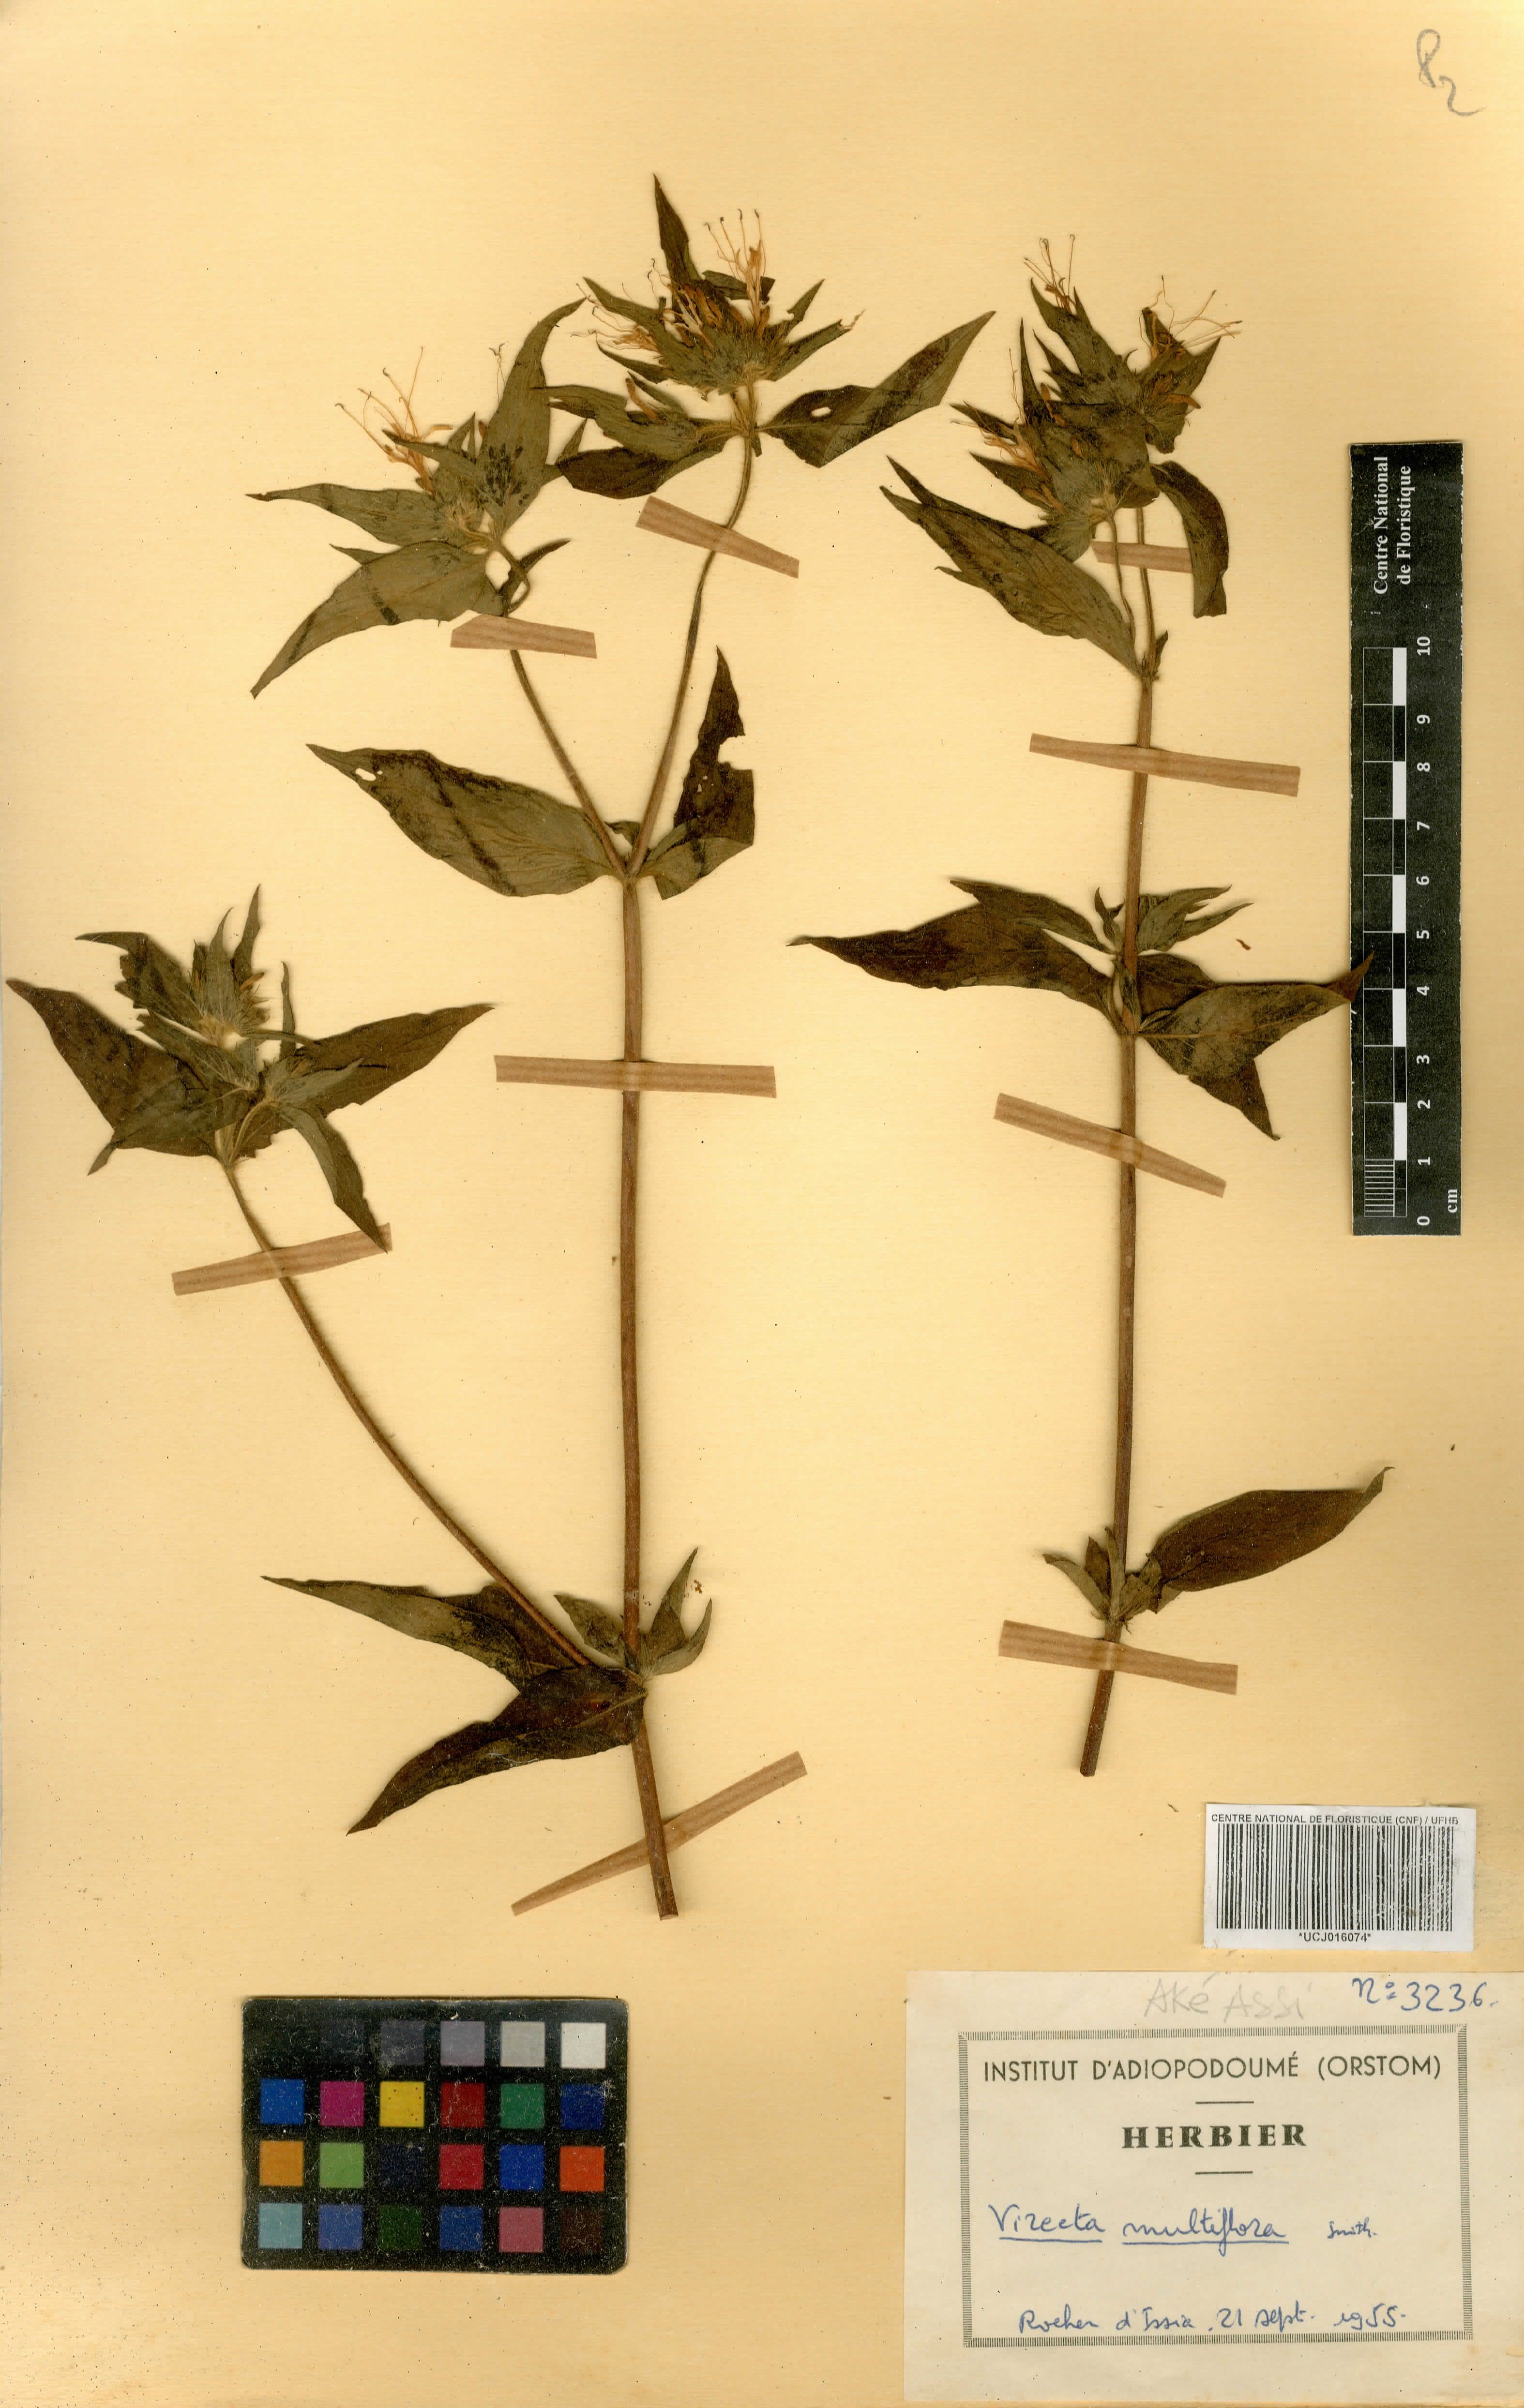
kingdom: Plantae
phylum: Tracheophyta
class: Magnoliopsida
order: Gentianales
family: Rubiaceae
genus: Virectaria
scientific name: Virectaria multiflora
